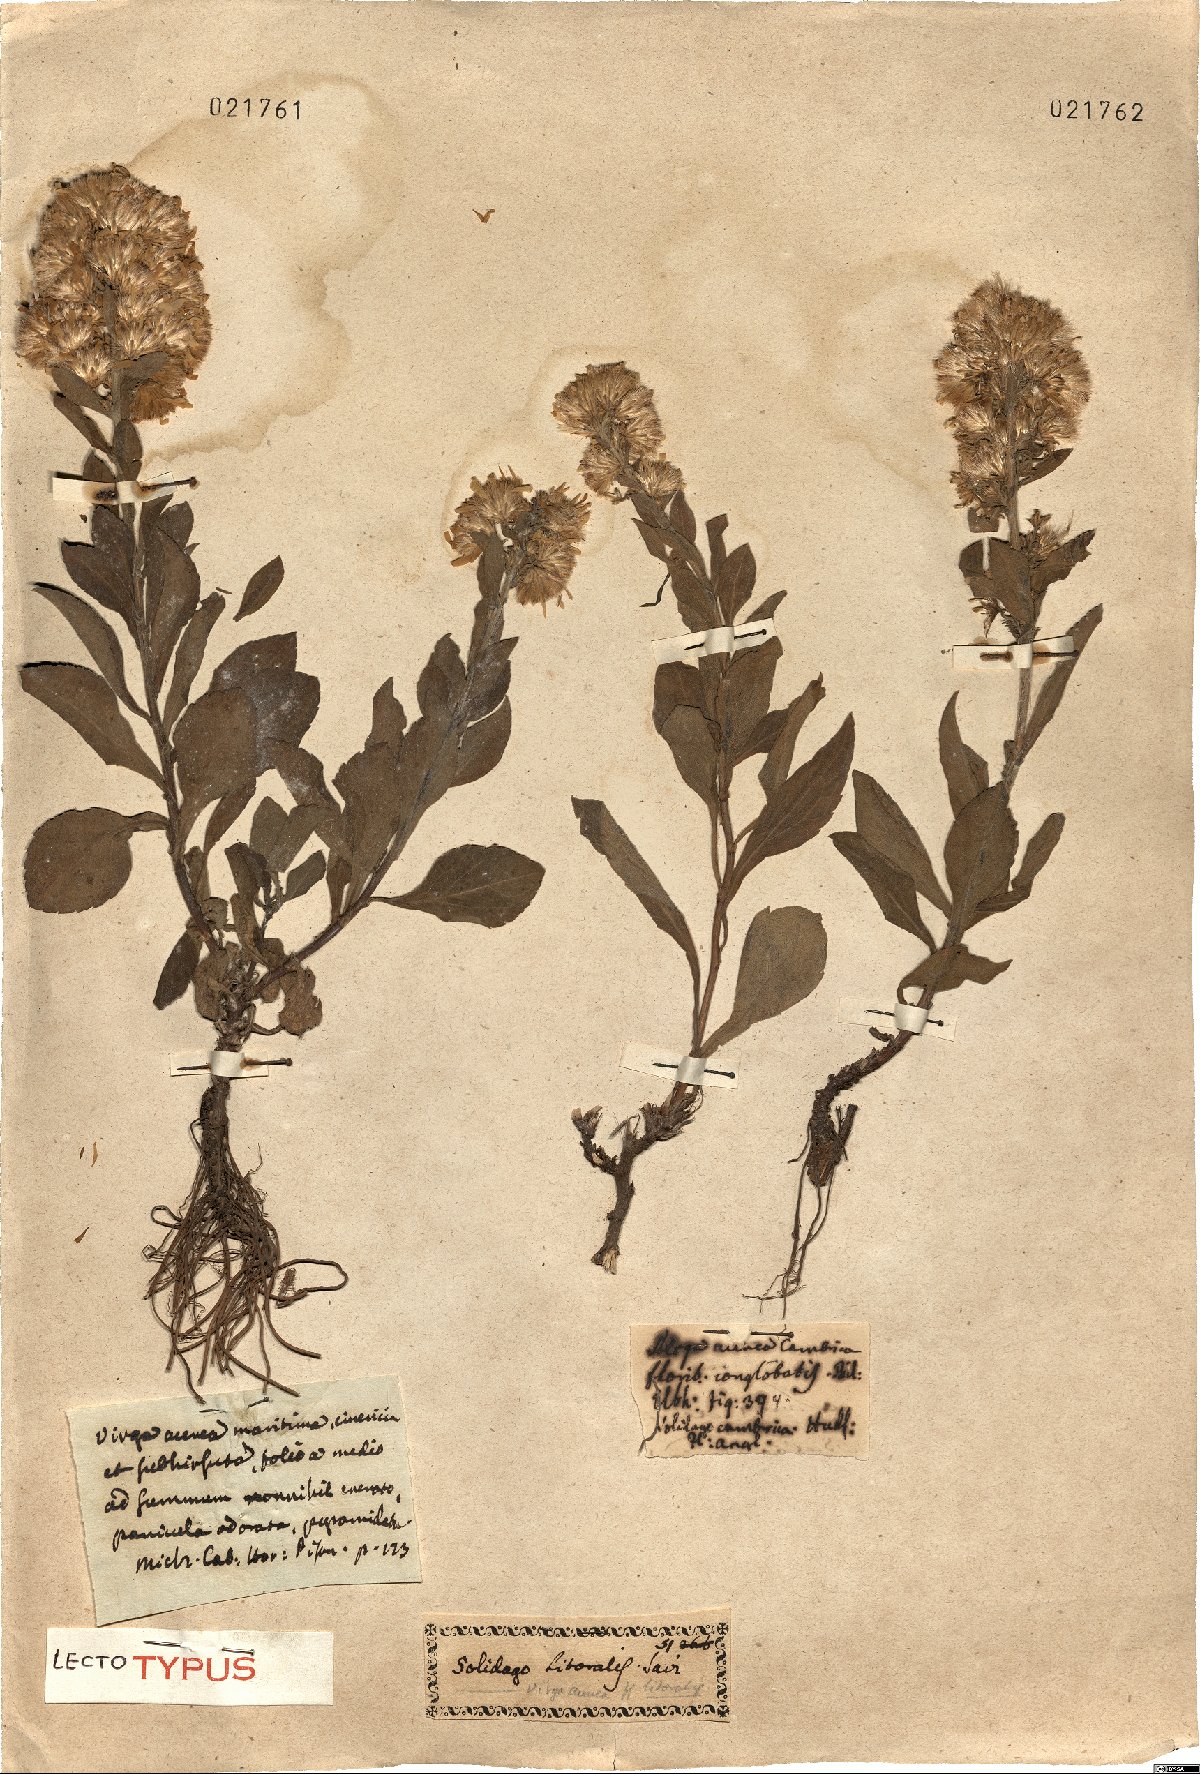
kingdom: Plantae
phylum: Tracheophyta
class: Magnoliopsida
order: Asterales
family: Asteraceae
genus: Solidago
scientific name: Solidago litoralis
